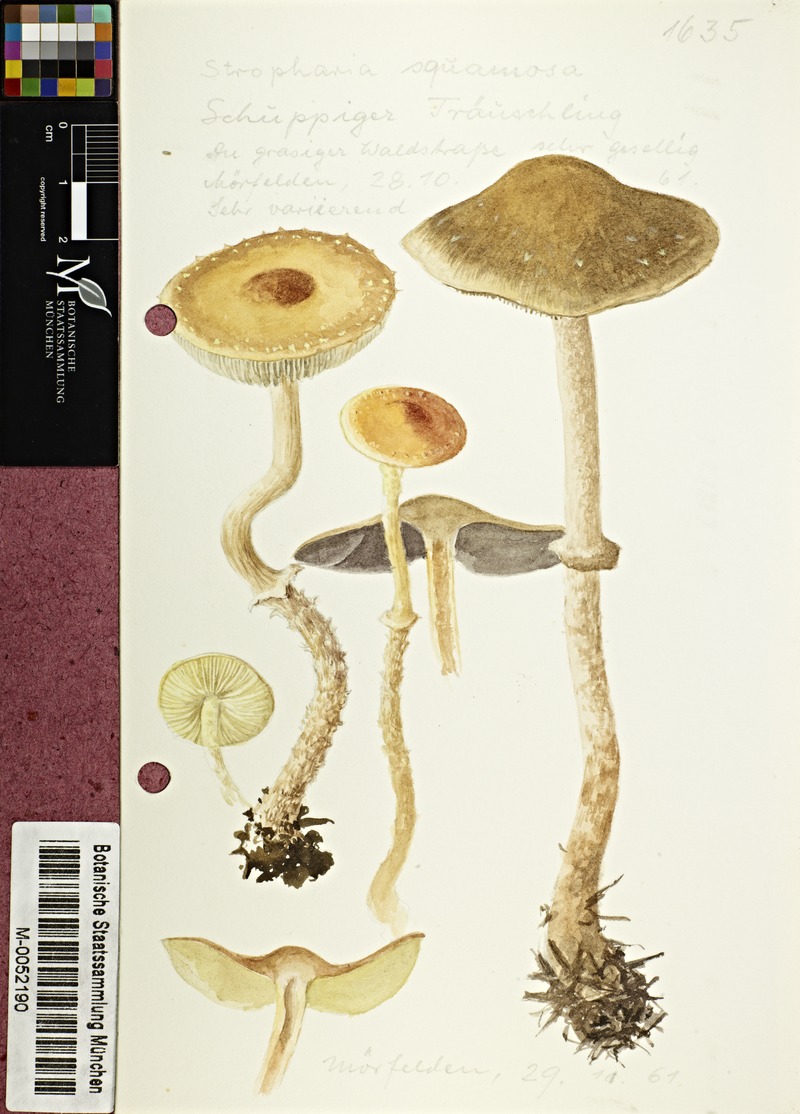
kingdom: Fungi
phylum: Basidiomycota
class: Agaricomycetes
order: Agaricales
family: Strophariaceae
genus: Leratiomyces
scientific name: Leratiomyces squamosus
